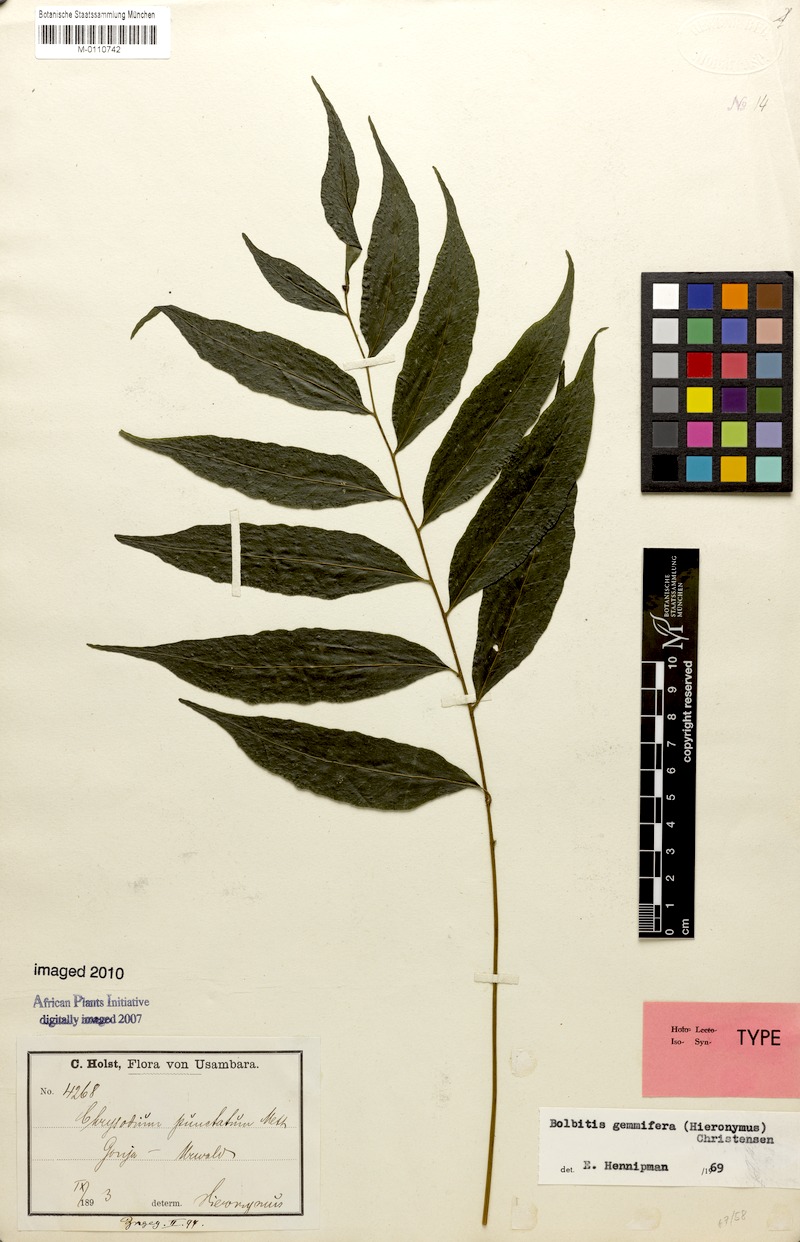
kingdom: Plantae
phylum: Tracheophyta
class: Polypodiopsida
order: Polypodiales
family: Dryopteridaceae
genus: Bolbitis
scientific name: Bolbitis gemmifer
